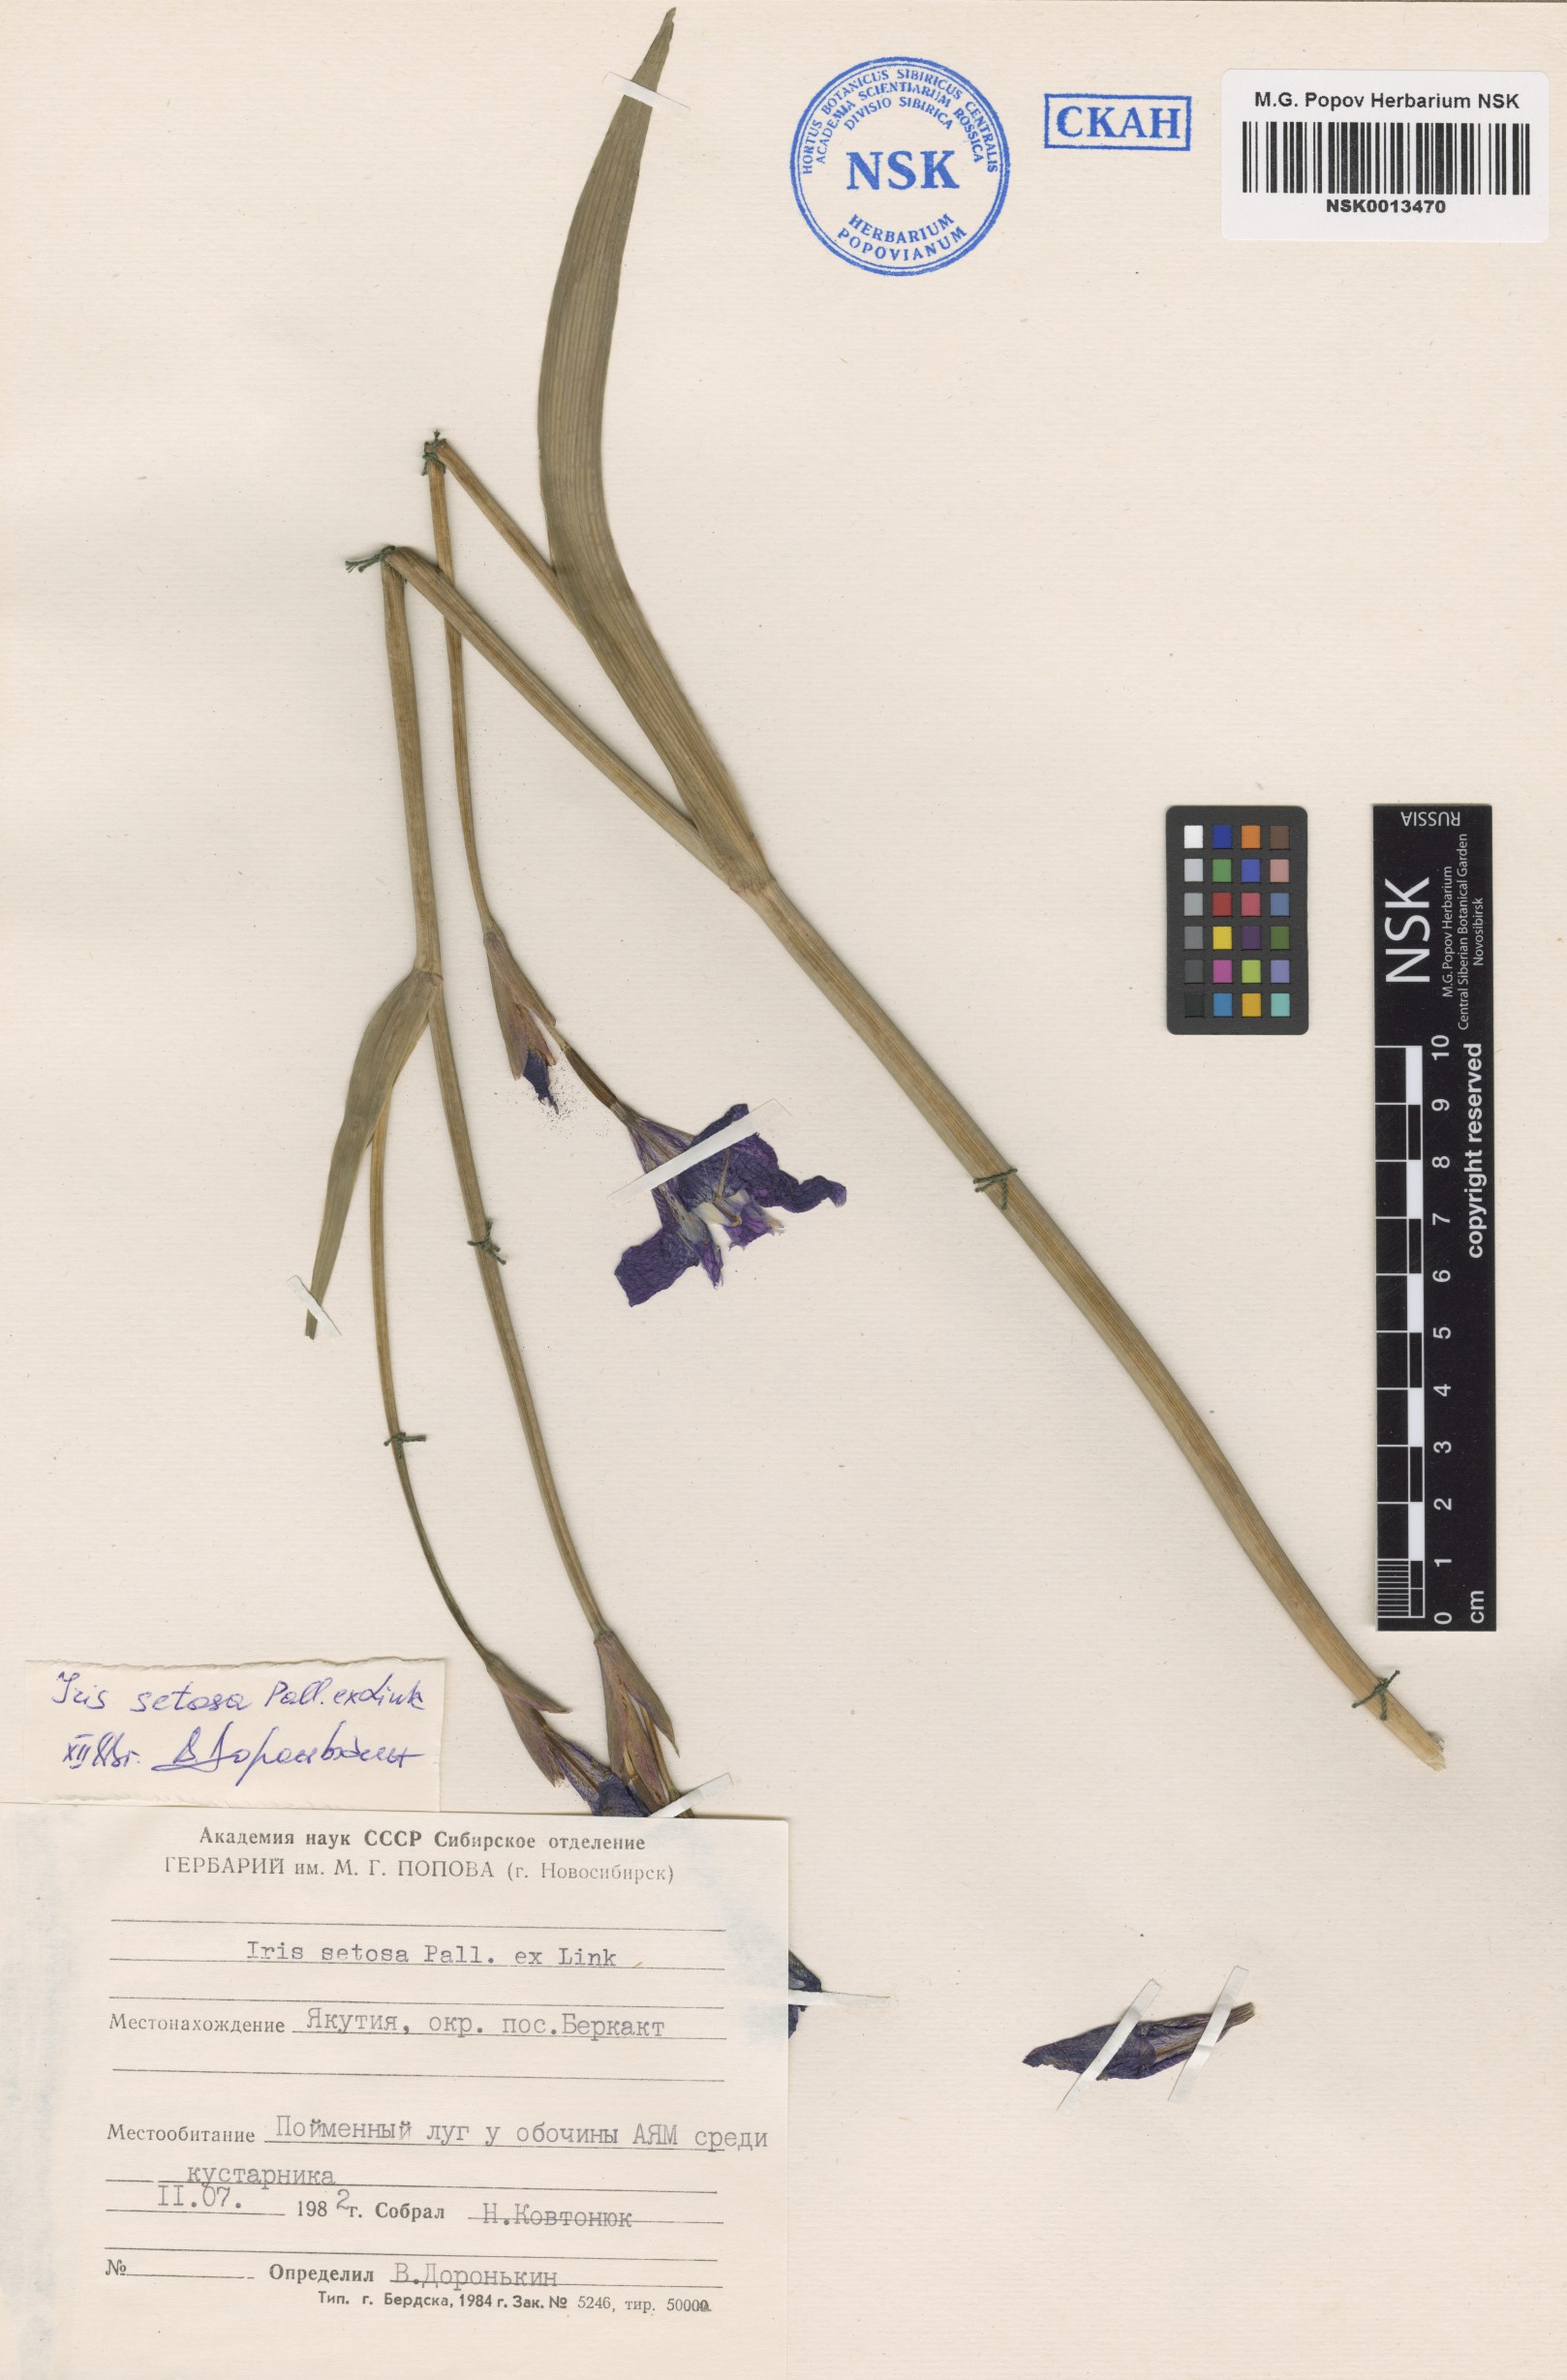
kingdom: Plantae
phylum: Tracheophyta
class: Liliopsida
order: Asparagales
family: Iridaceae
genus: Iris
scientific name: Iris setosa
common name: Arctic blue flag
